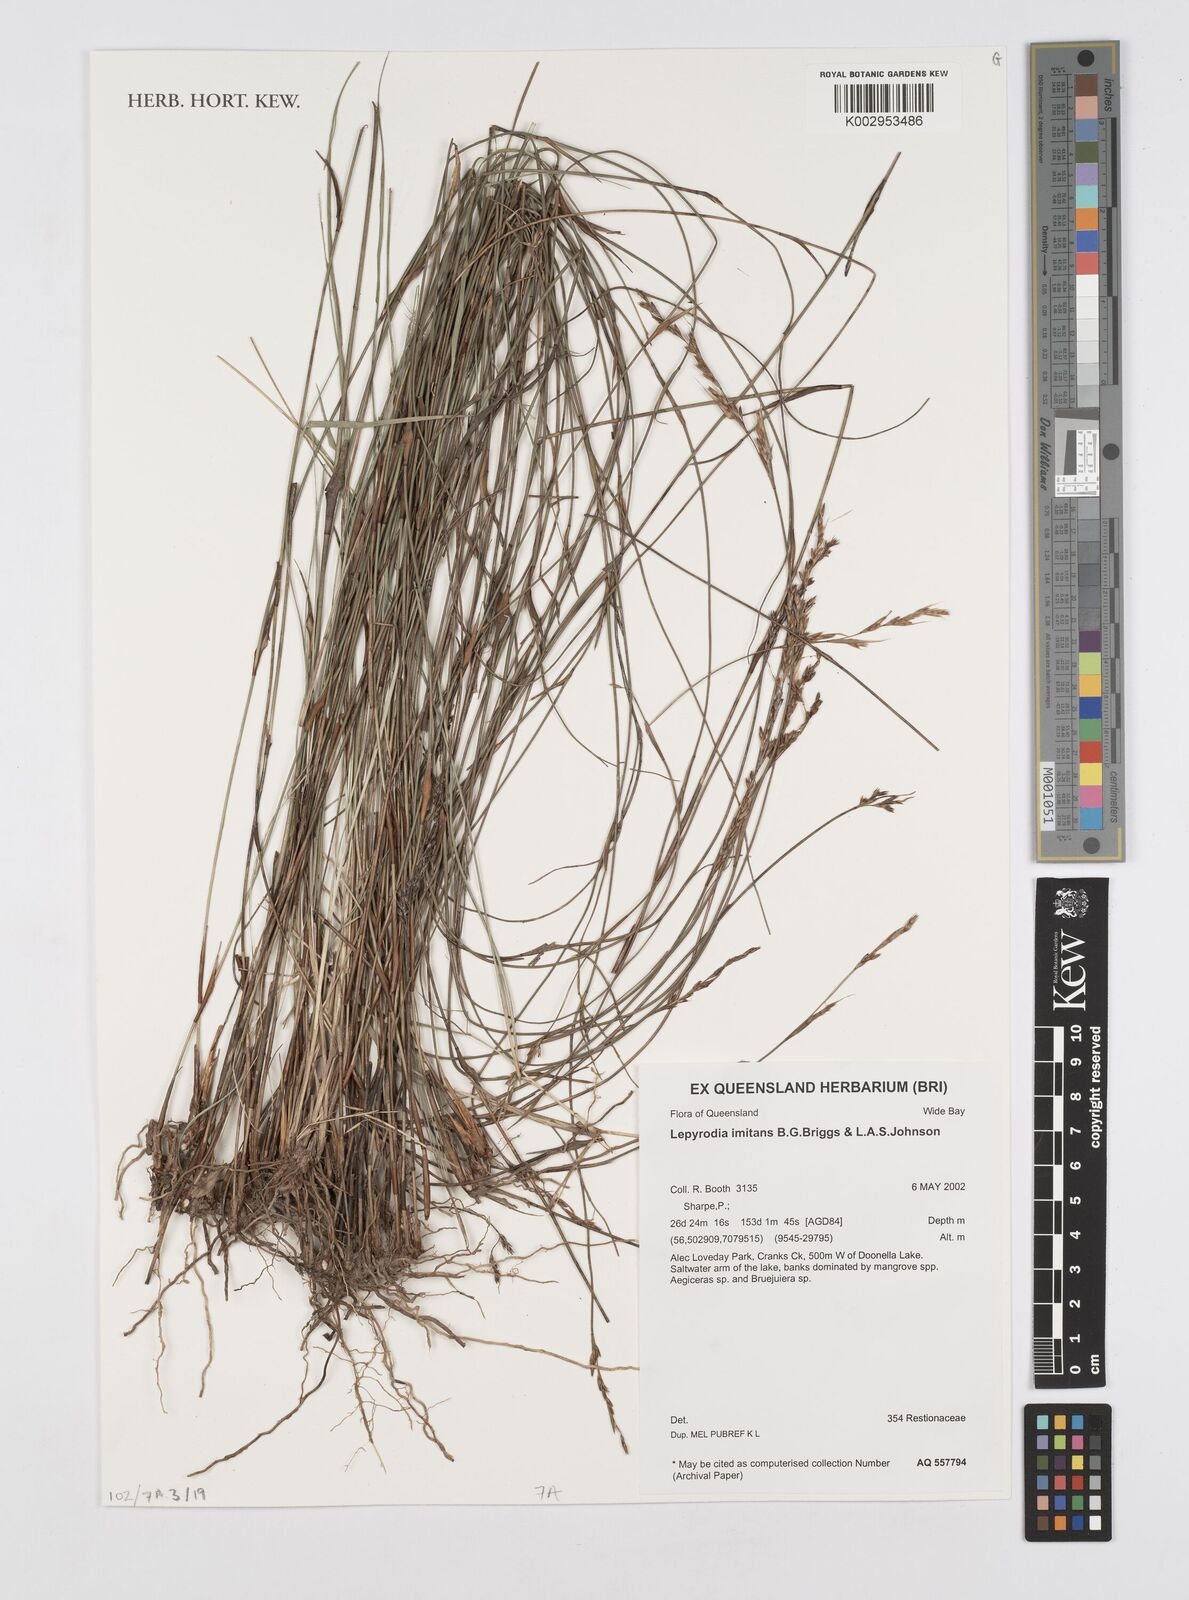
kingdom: Plantae
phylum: Tracheophyta
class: Liliopsida
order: Poales
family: Restionaceae
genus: Lepyrodia
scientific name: Lepyrodia imitans
